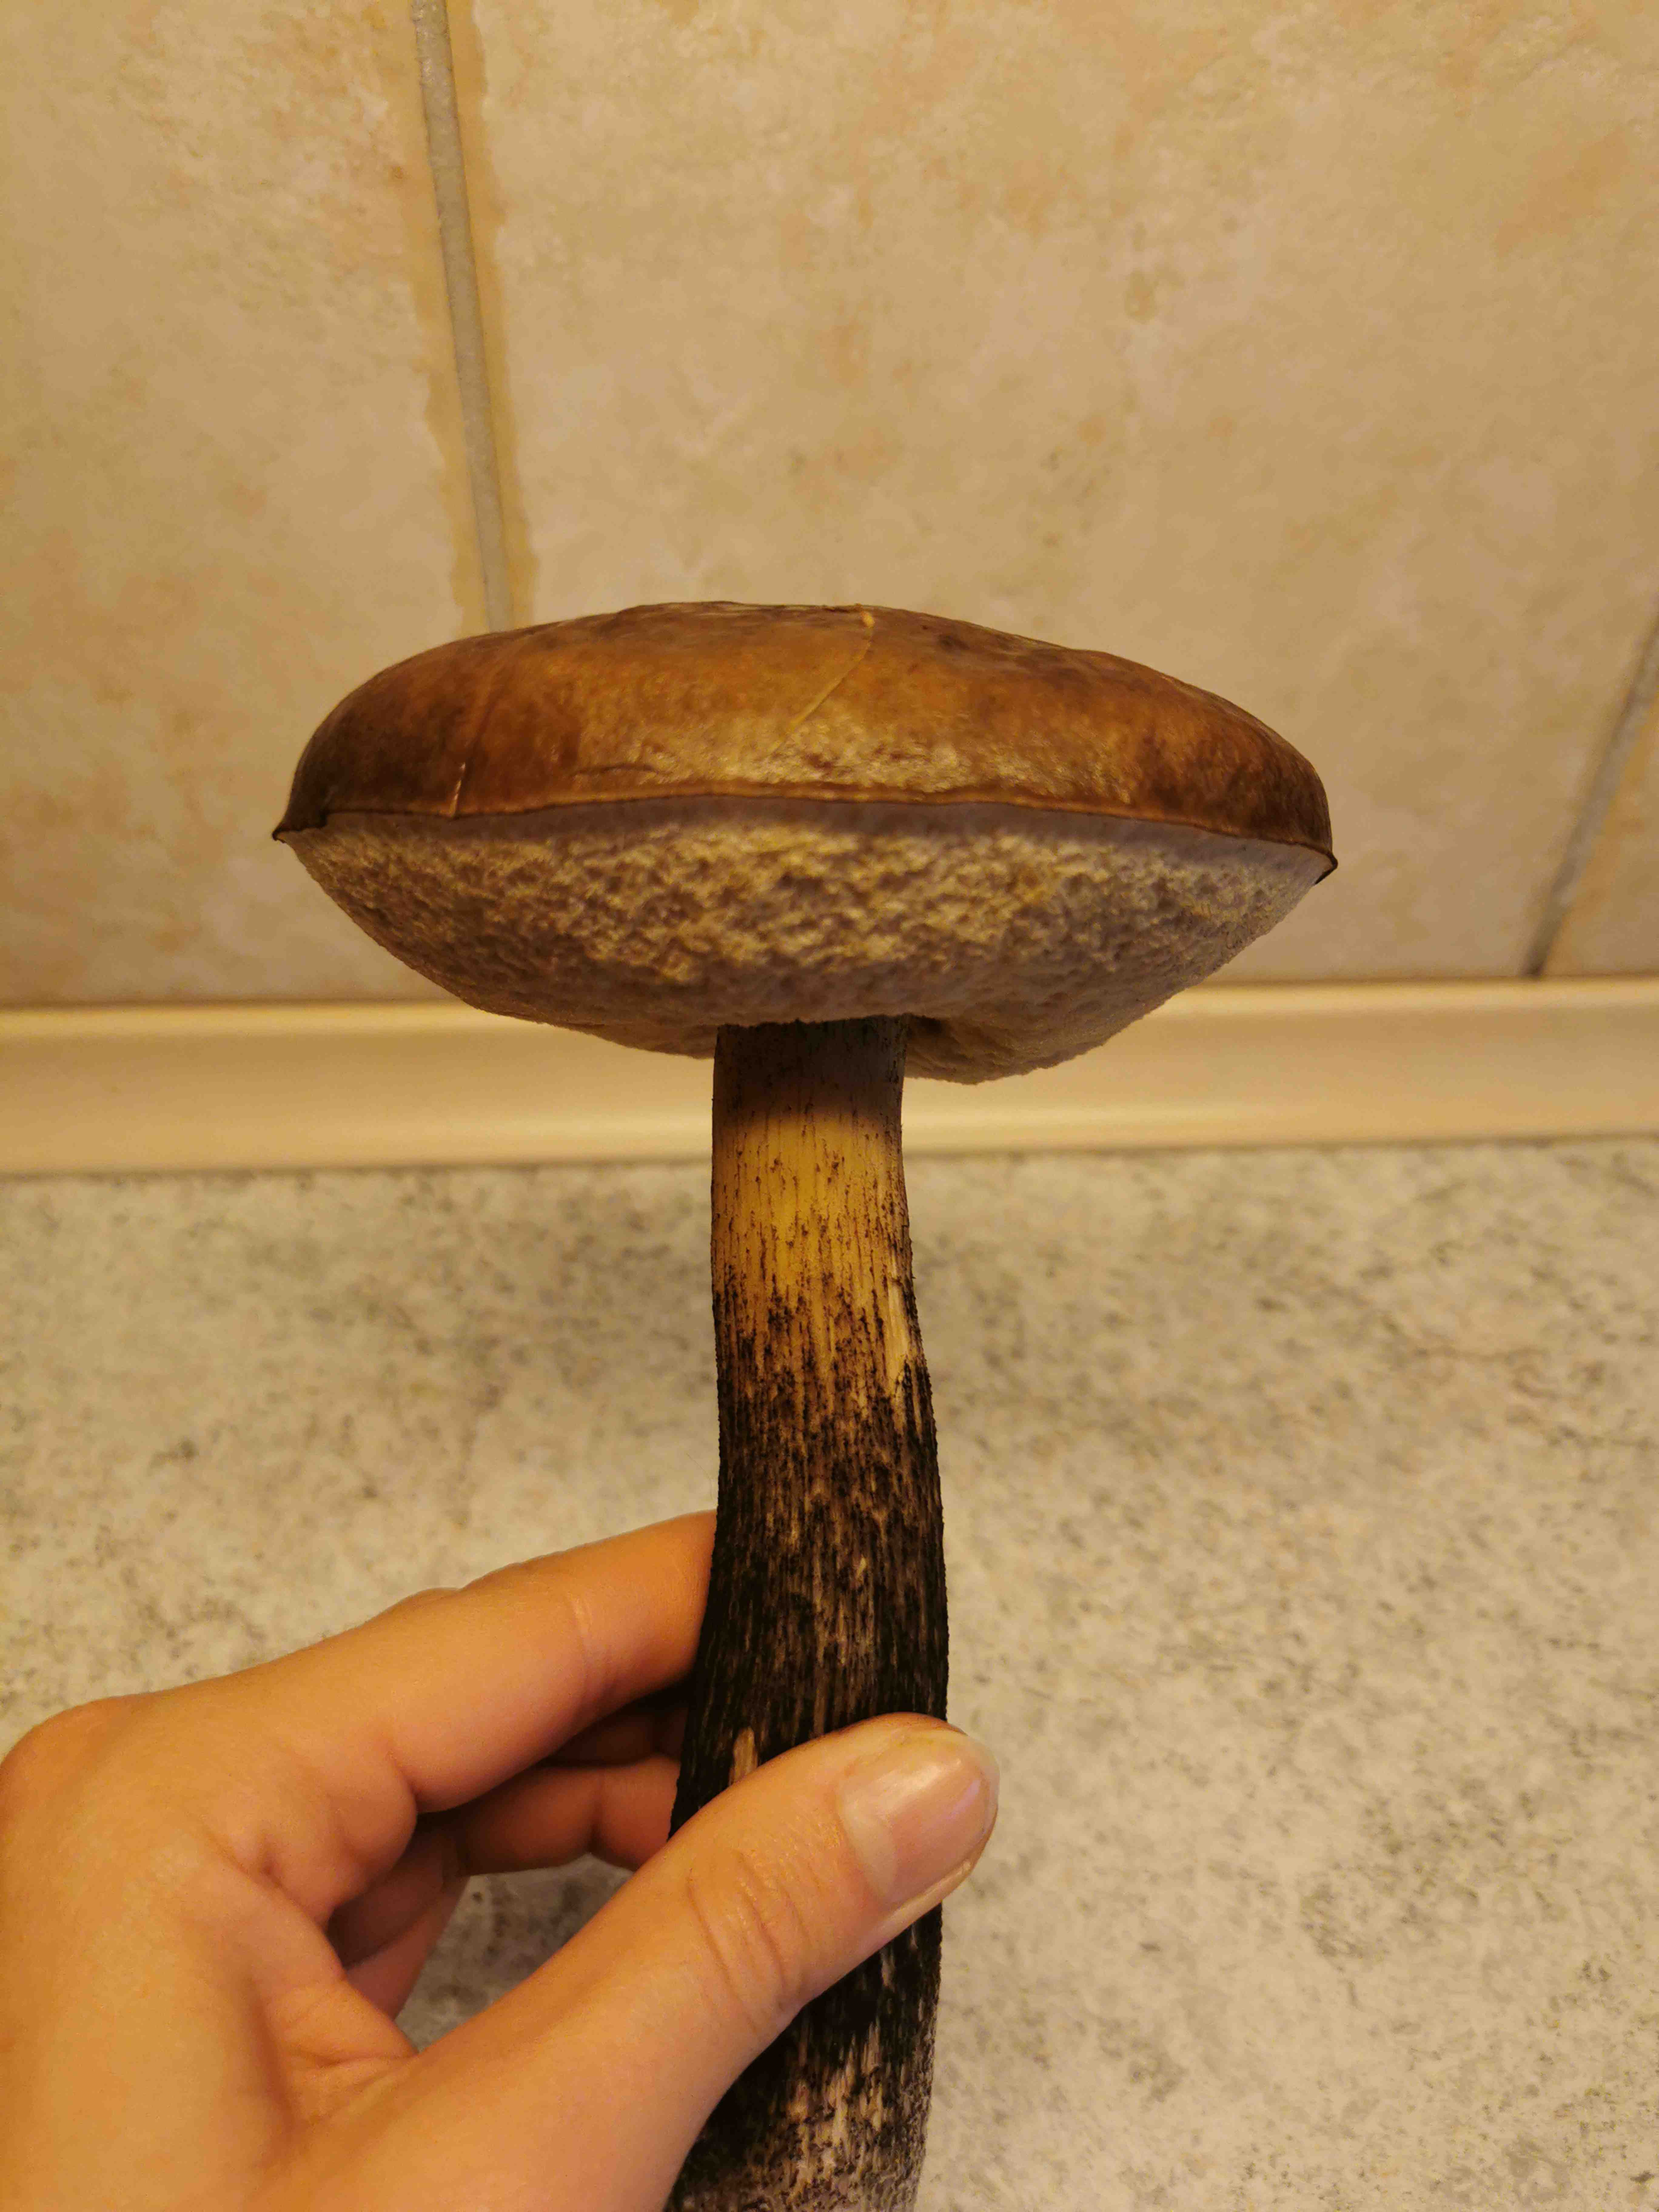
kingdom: Fungi
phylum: Basidiomycota
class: Agaricomycetes
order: Boletales
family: Boletaceae
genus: Leccinum
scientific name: Leccinum
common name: skælrørhat
